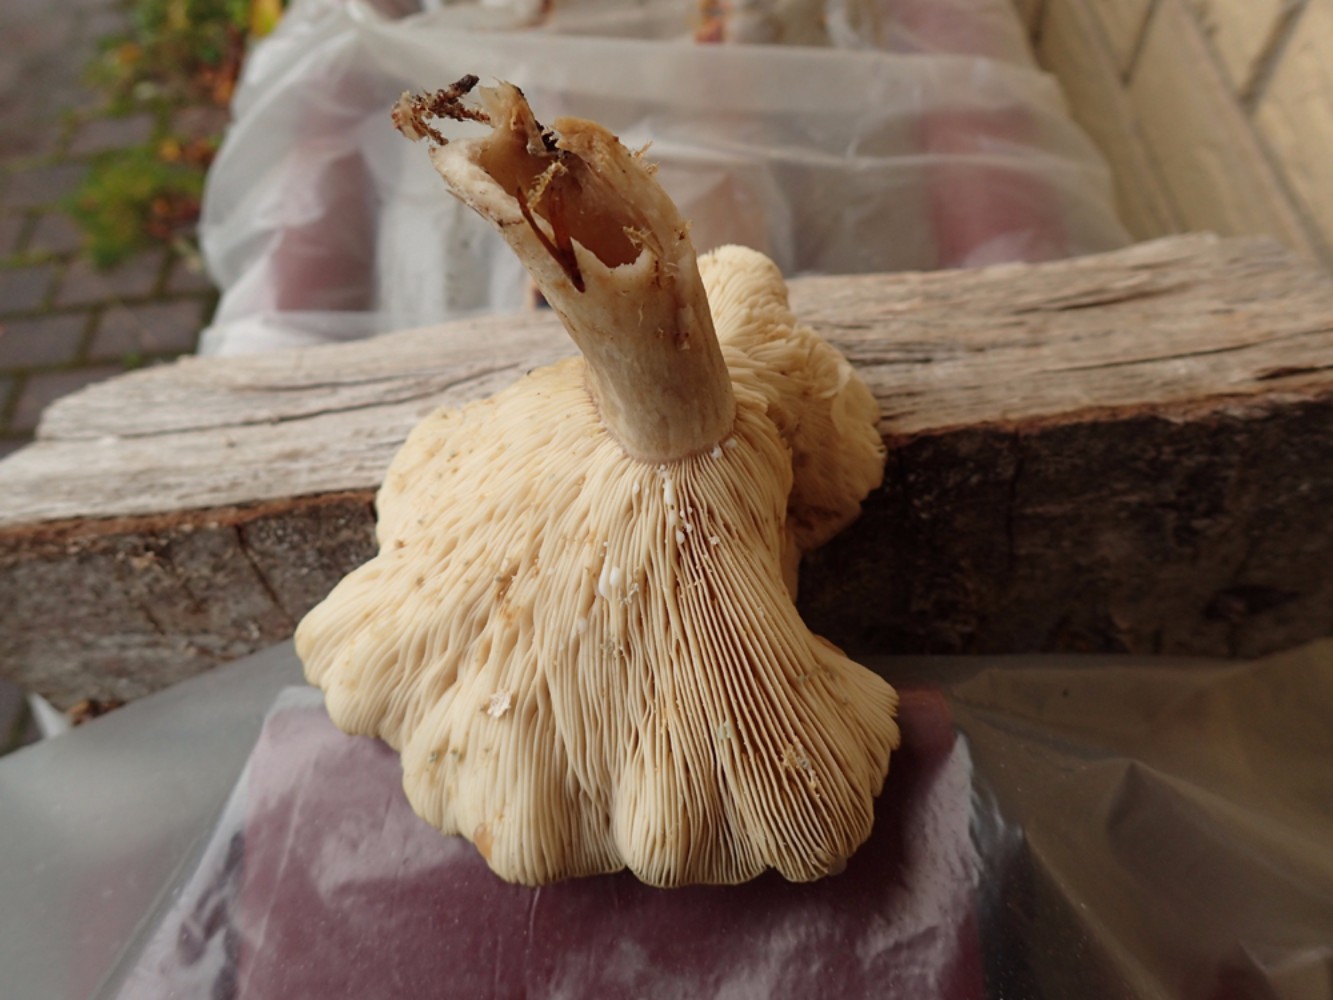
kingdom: Fungi
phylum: Basidiomycota
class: Agaricomycetes
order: Russulales
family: Russulaceae
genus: Lactarius
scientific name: Lactarius blennius
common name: dråbeplettet mælkehat
